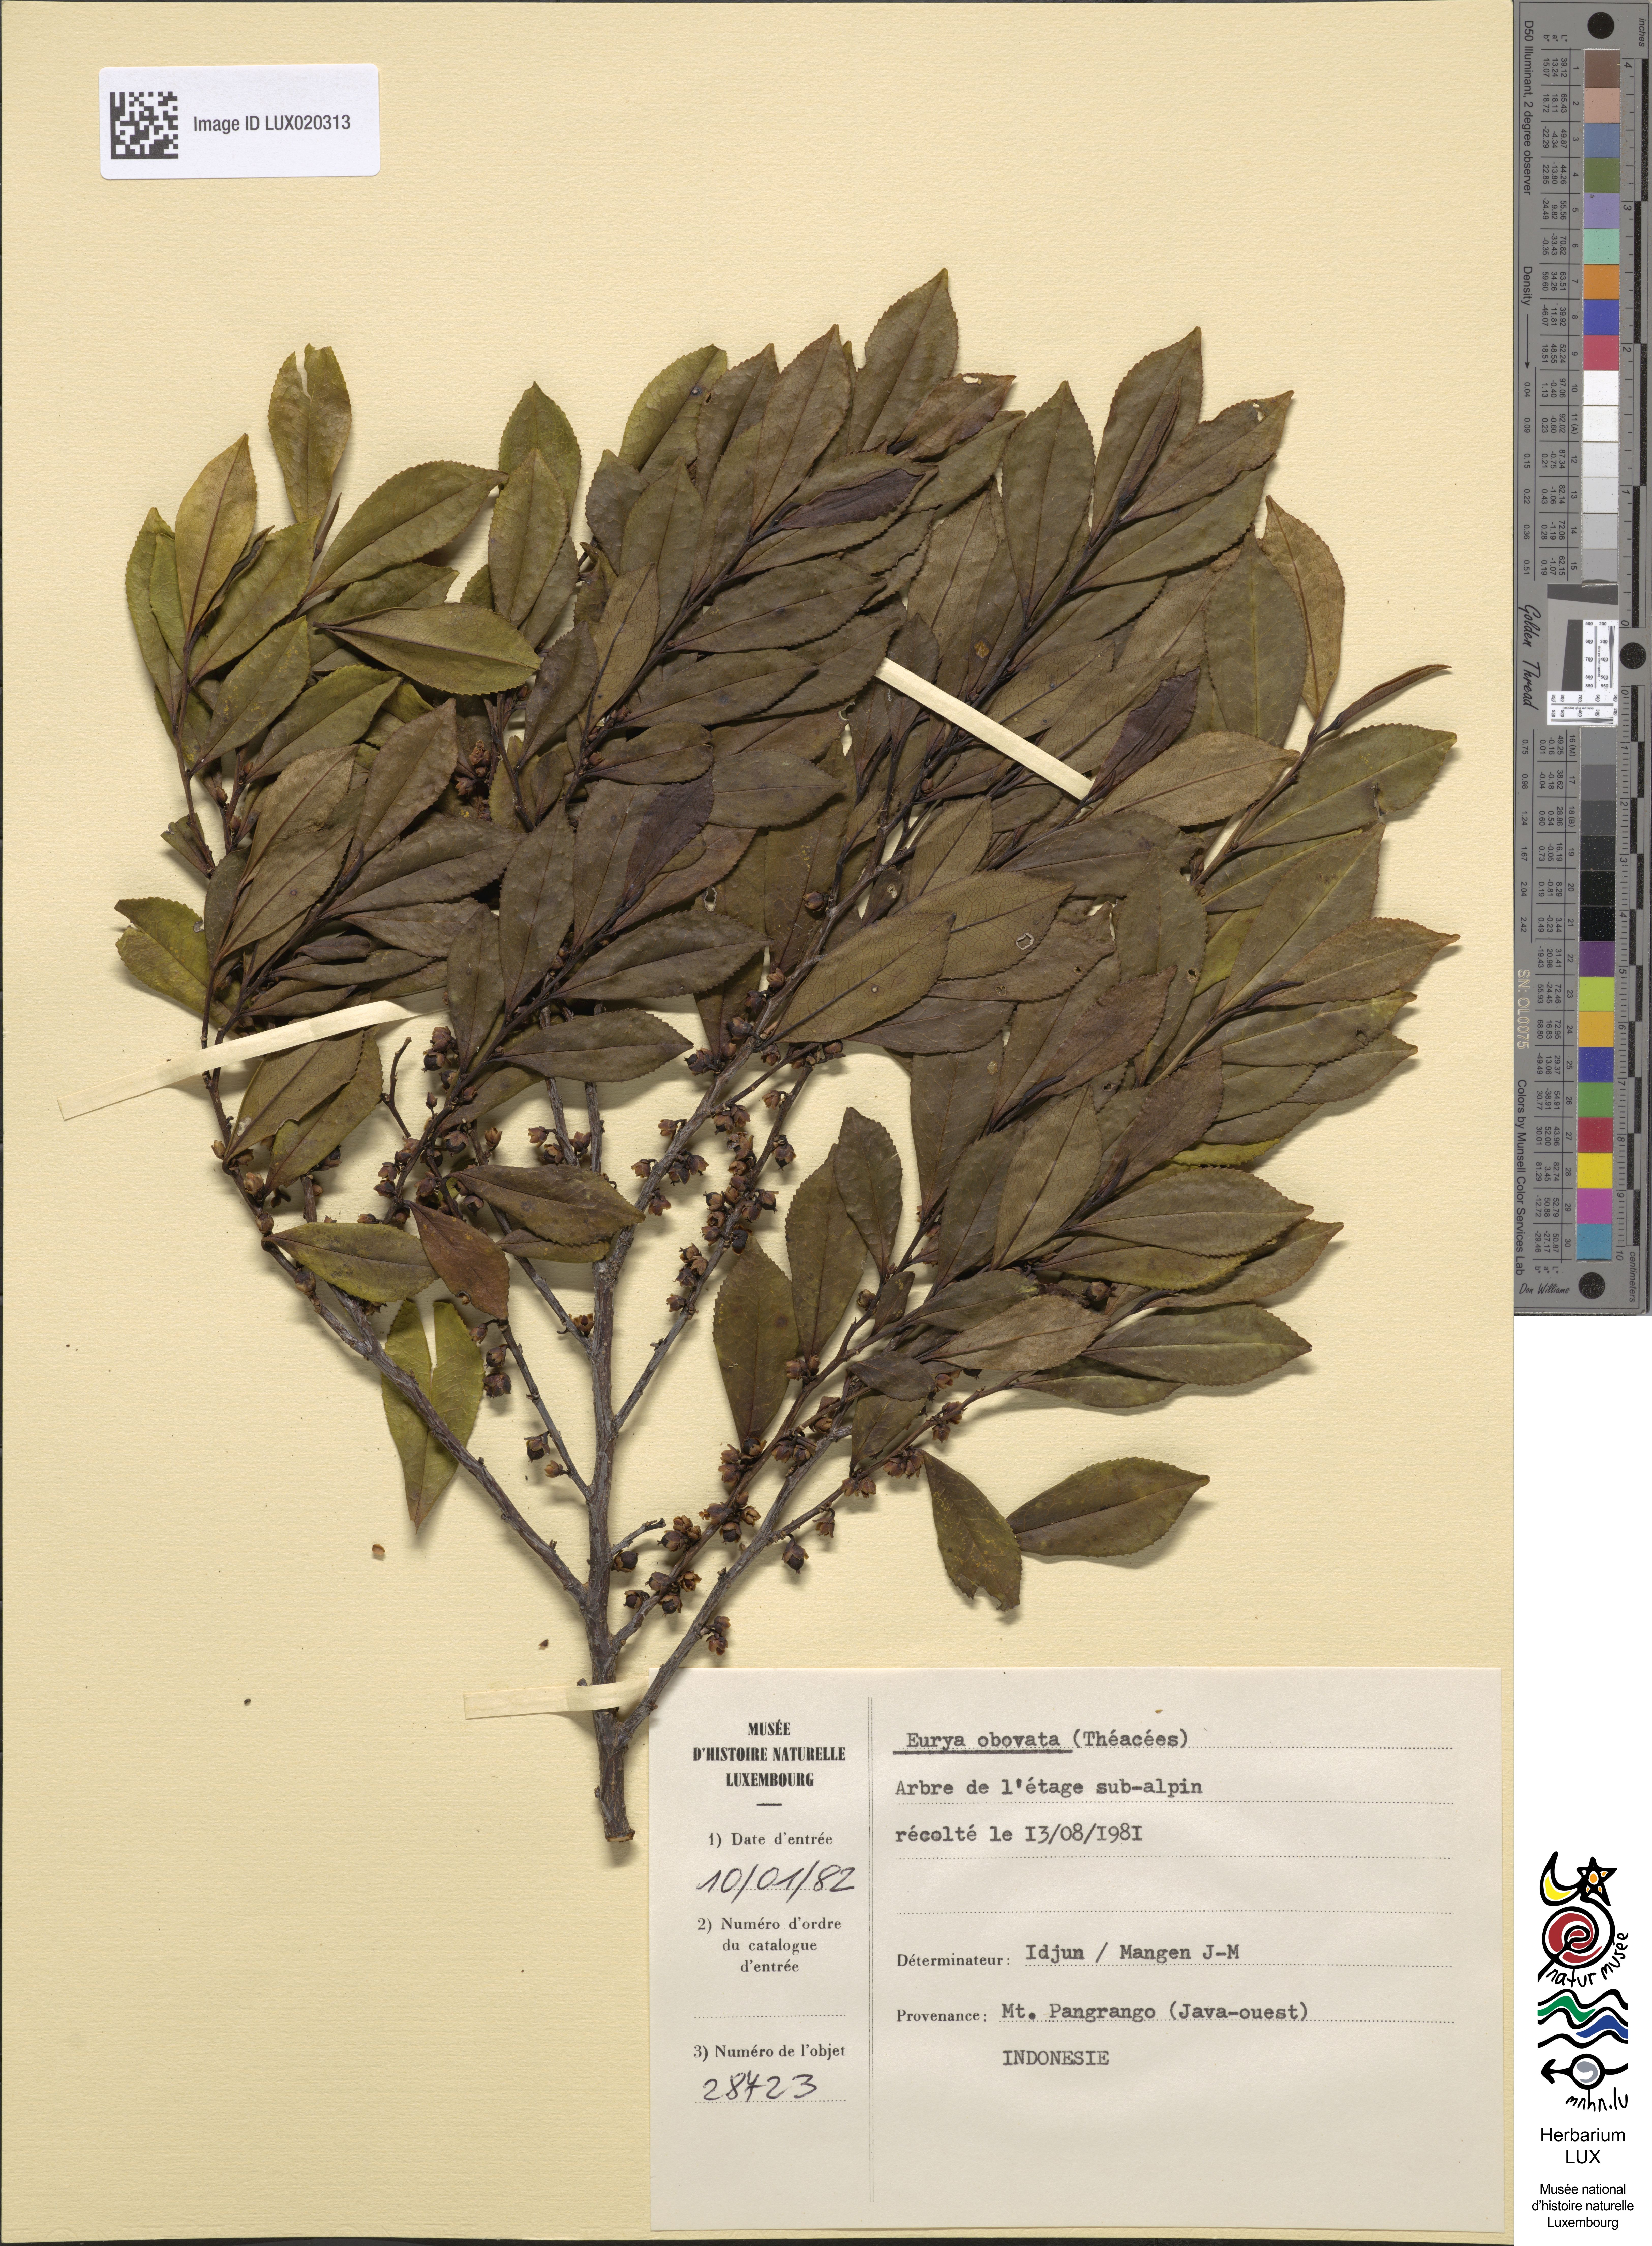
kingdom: Plantae
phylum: Tracheophyta
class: Magnoliopsida
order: Ericales
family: Pentaphylacaceae
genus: Eurya
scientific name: Eurya obovata
